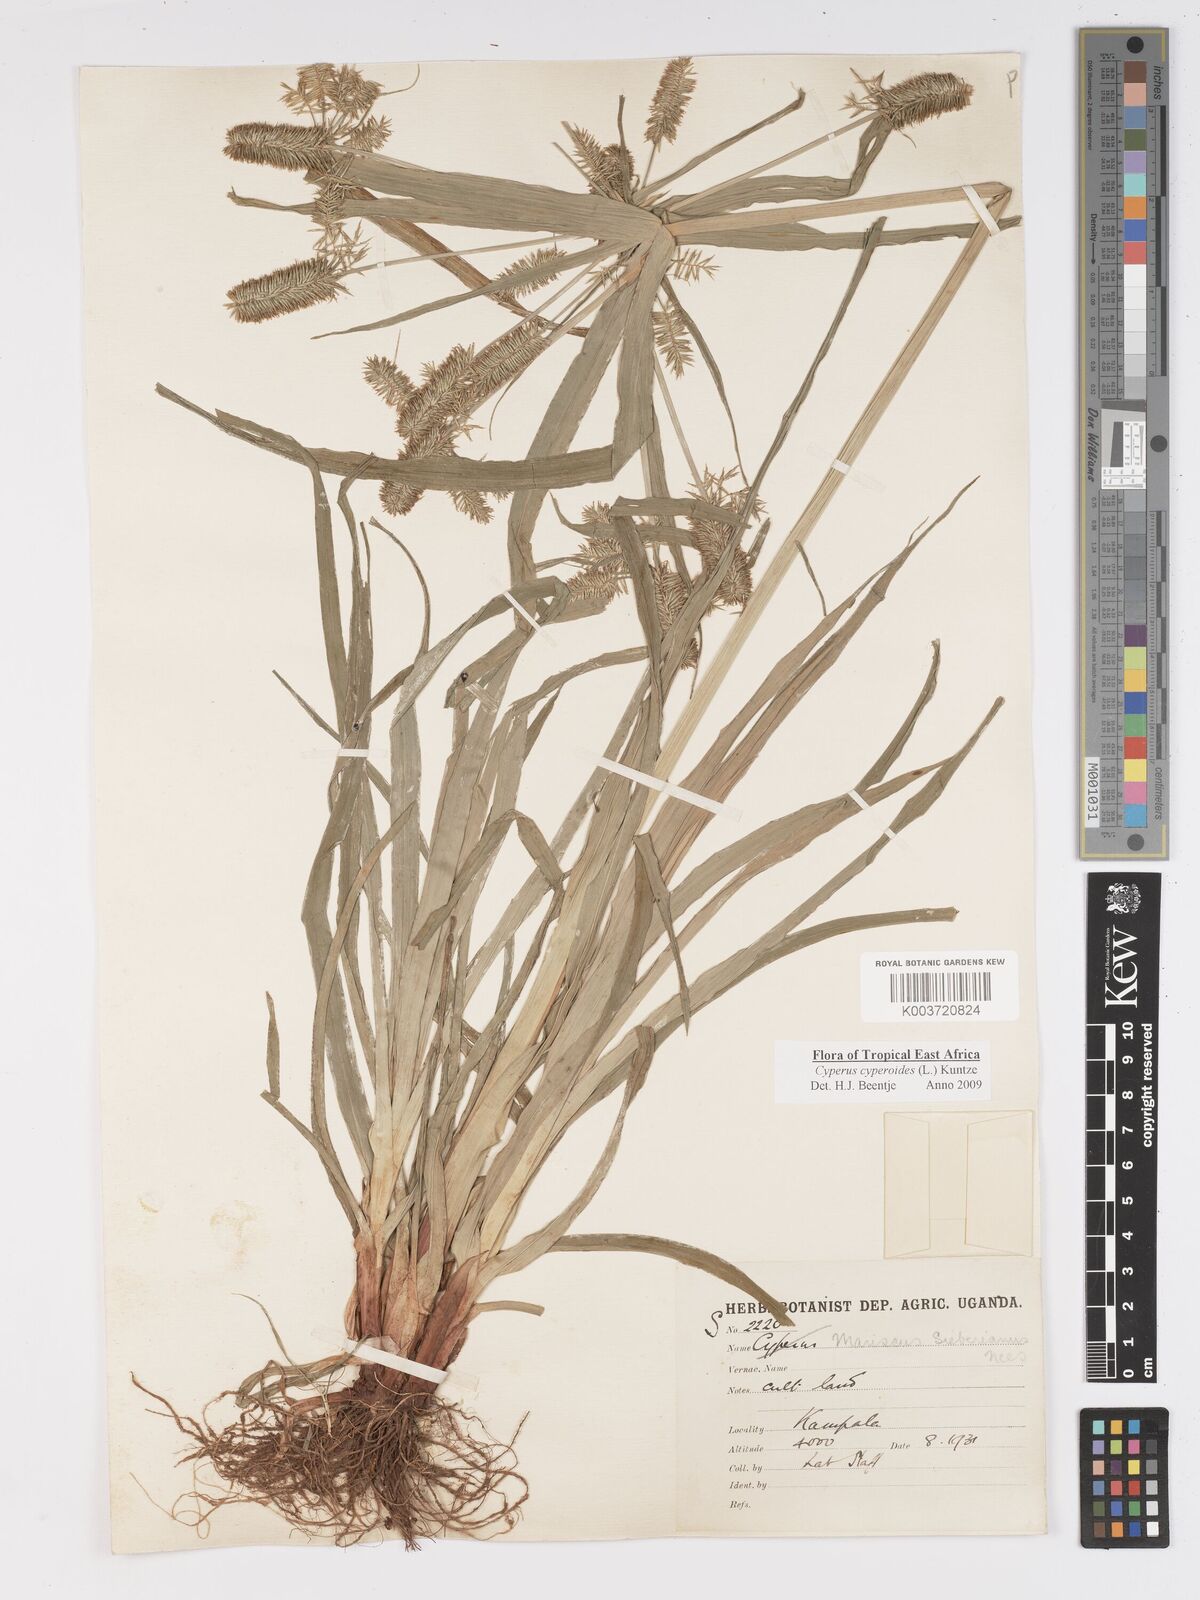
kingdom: Plantae
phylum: Tracheophyta
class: Liliopsida
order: Poales
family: Cyperaceae
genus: Cyperus
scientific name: Cyperus cyperoides
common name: Pacific island flat sedge
